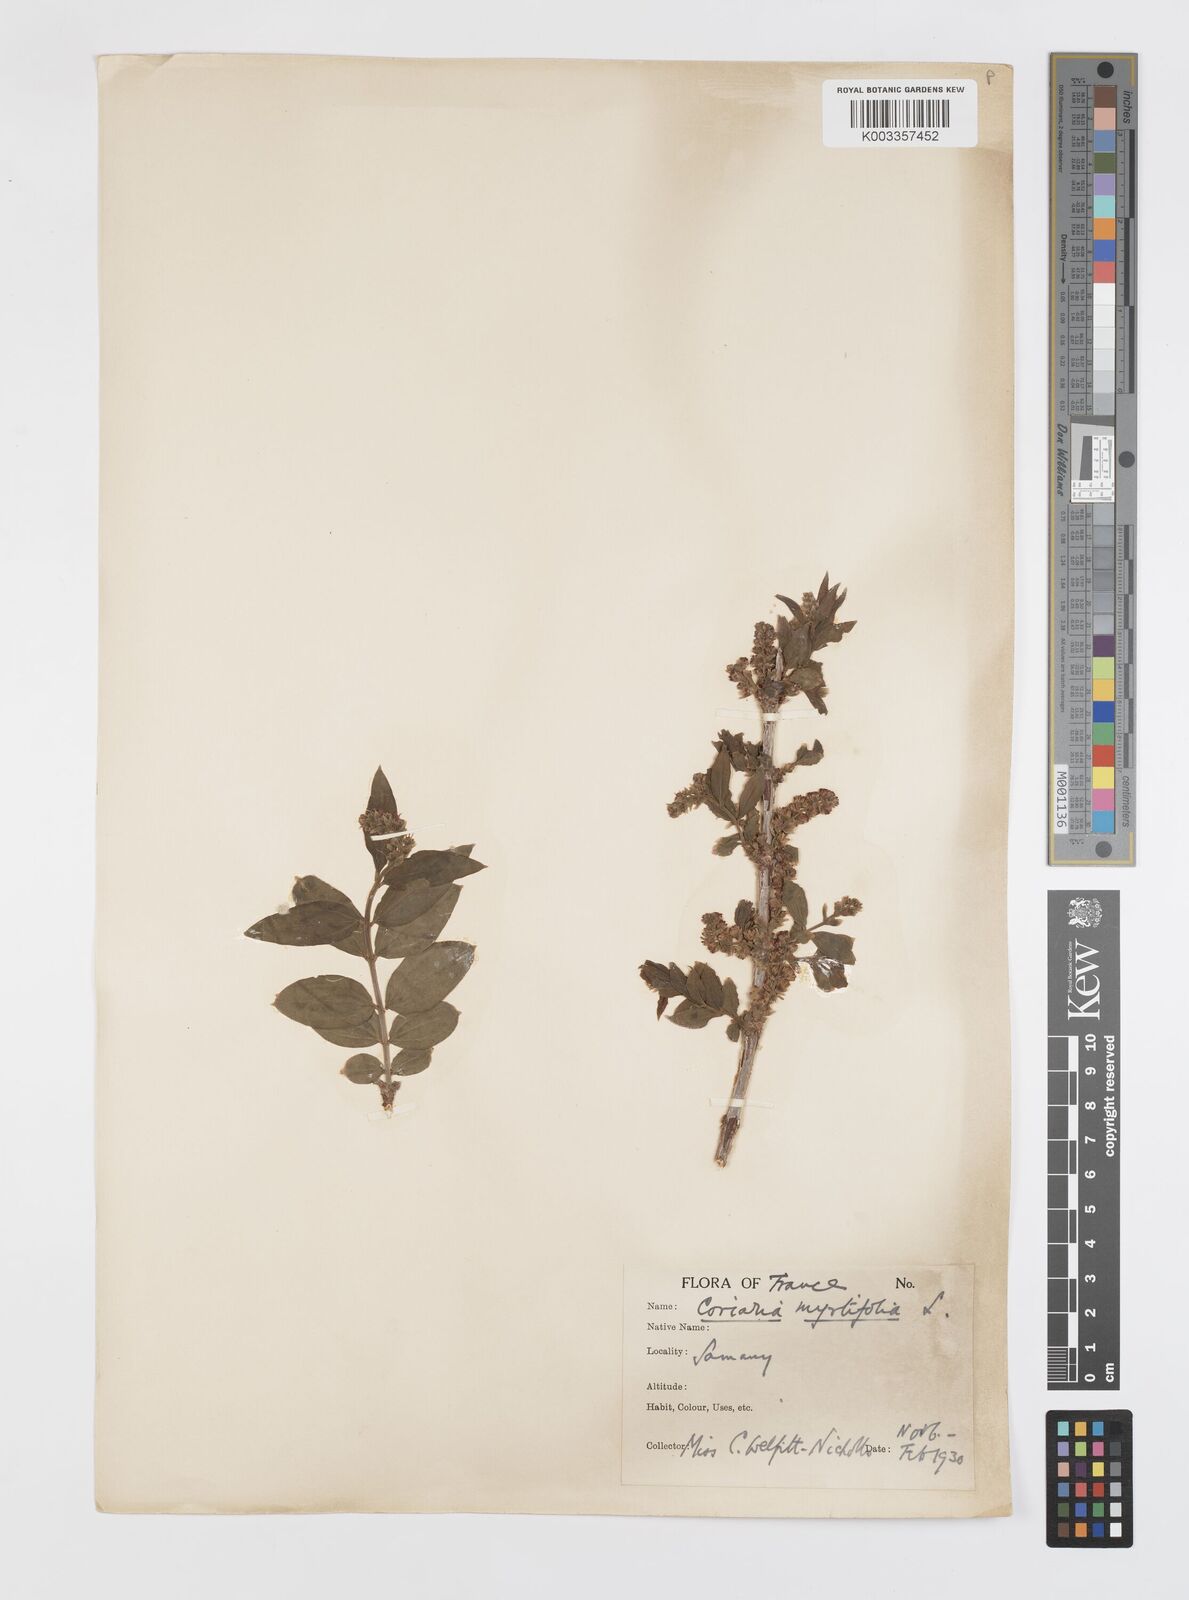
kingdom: Plantae
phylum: Tracheophyta
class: Magnoliopsida
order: Cucurbitales
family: Coriariaceae
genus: Coriaria
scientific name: Coriaria myrtifolia
